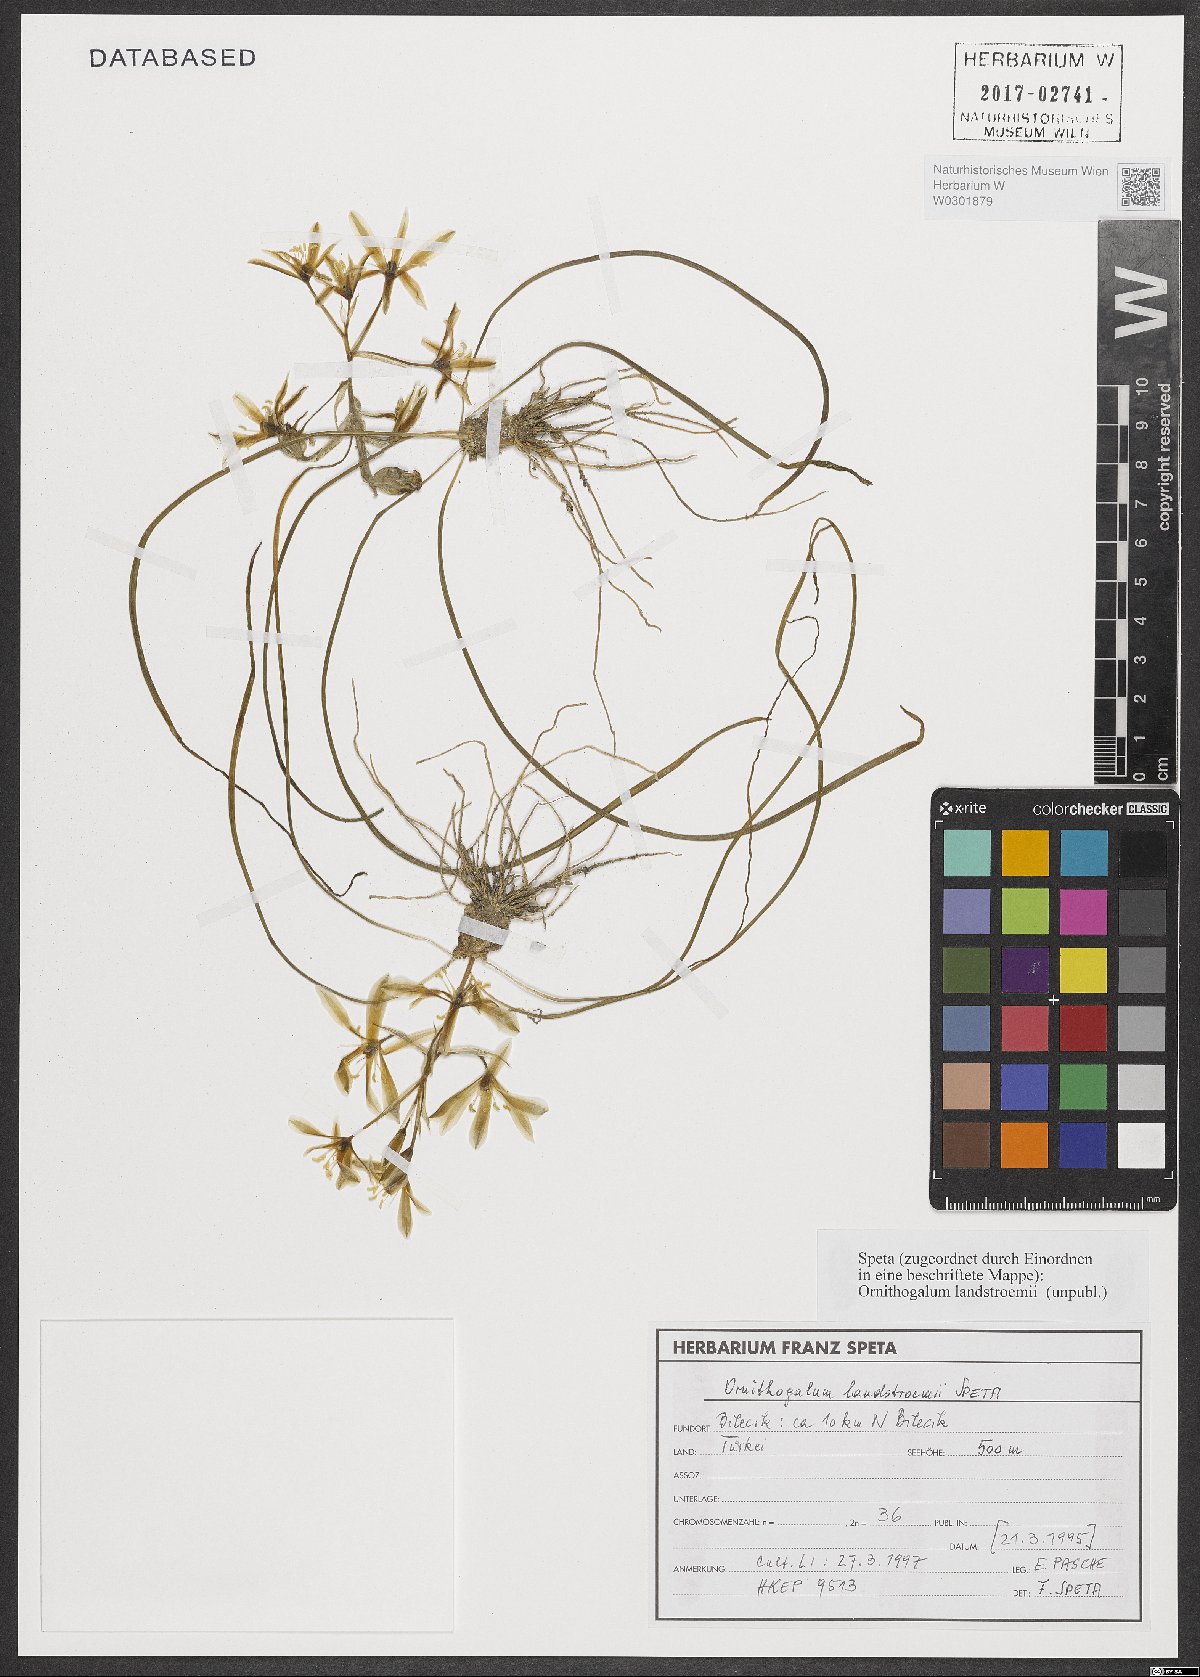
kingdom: Plantae
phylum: Tracheophyta
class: Liliopsida
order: Asparagales
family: Asparagaceae
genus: Ornithogalum
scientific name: Ornithogalum
